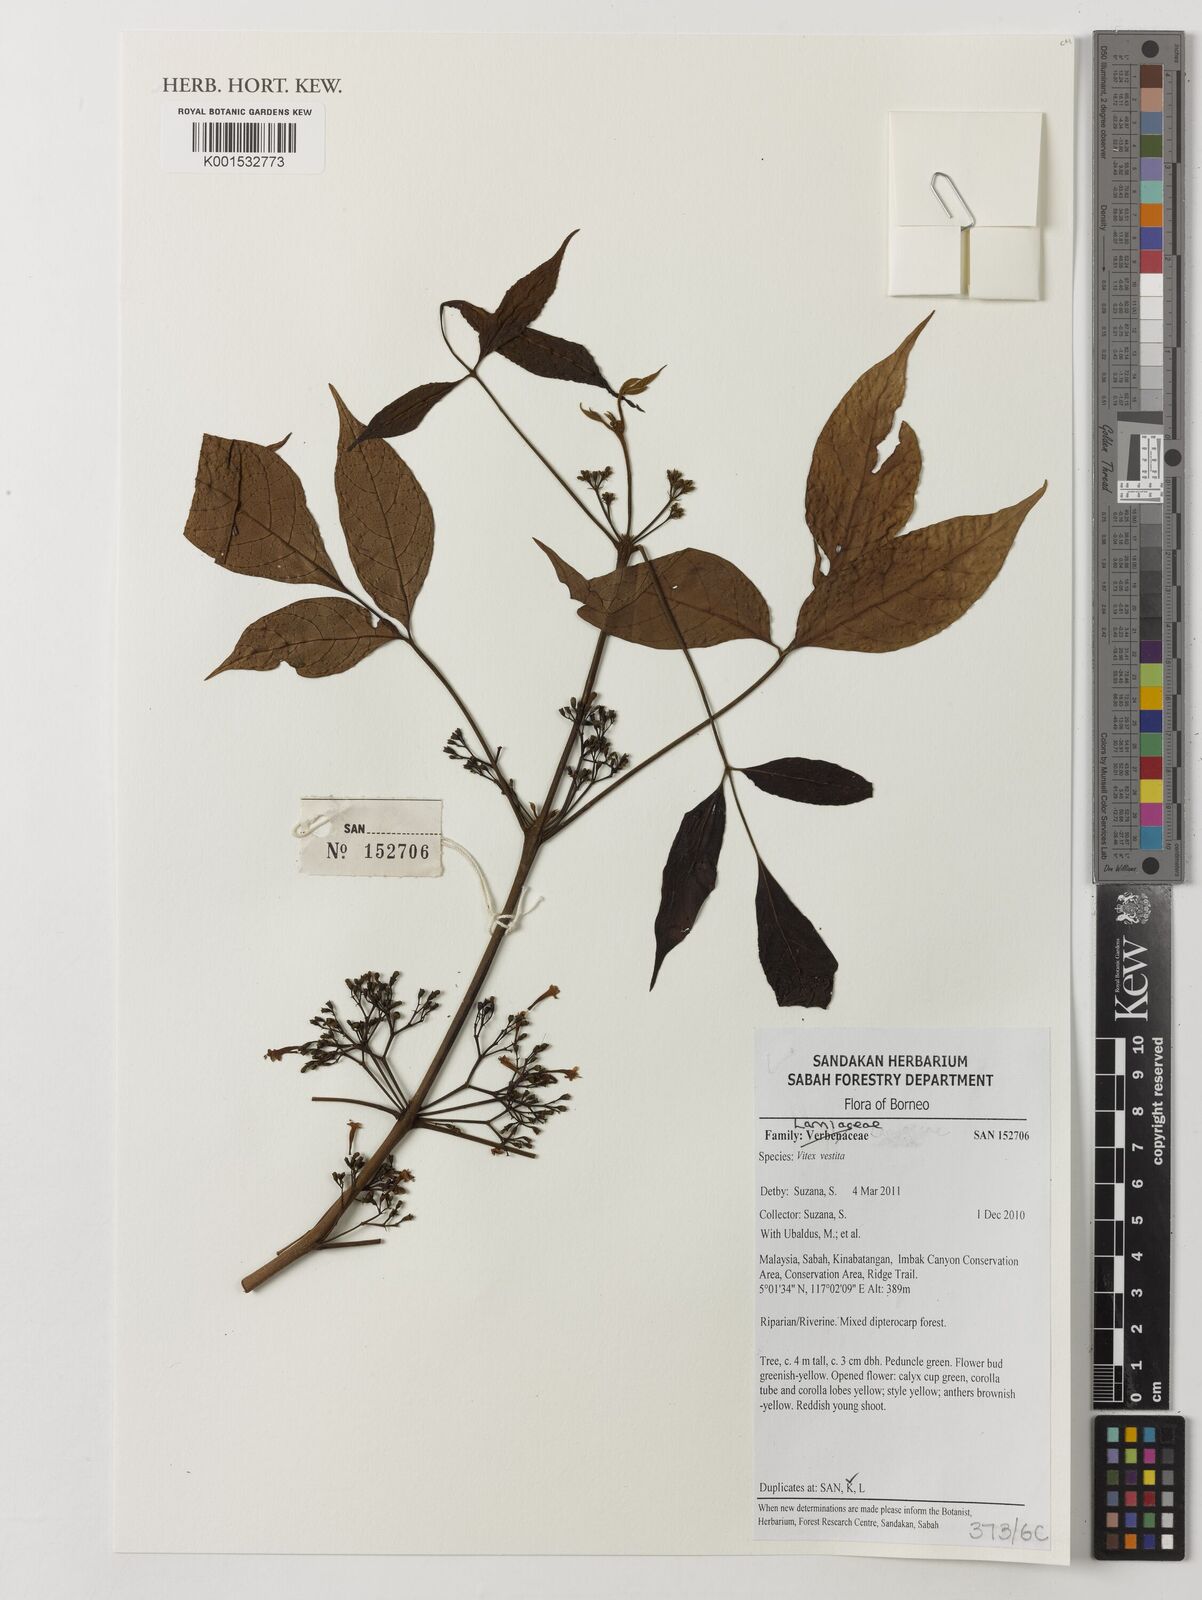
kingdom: Plantae
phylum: Tracheophyta
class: Magnoliopsida
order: Lamiales
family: Lamiaceae
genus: Vitex
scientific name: Vitex vestita
